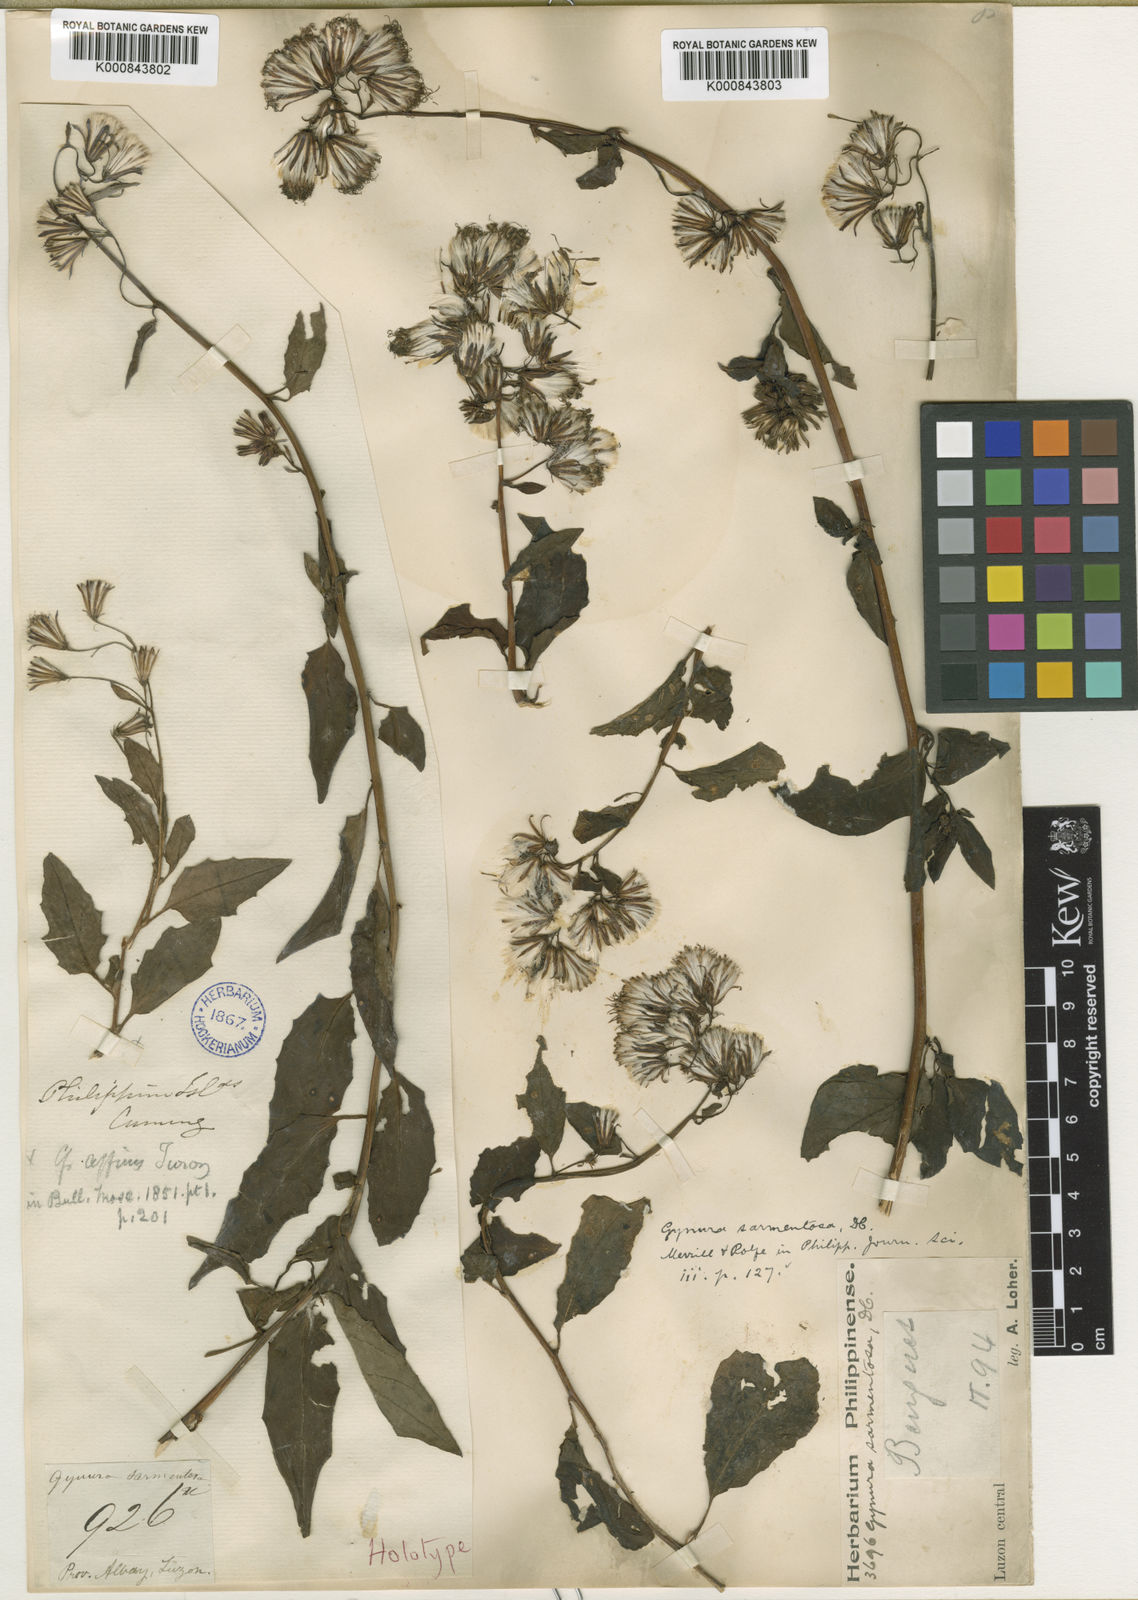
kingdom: Plantae
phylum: Tracheophyta
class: Magnoliopsida
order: Asterales
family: Asteraceae
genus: Gynura
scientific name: Gynura procumbens
